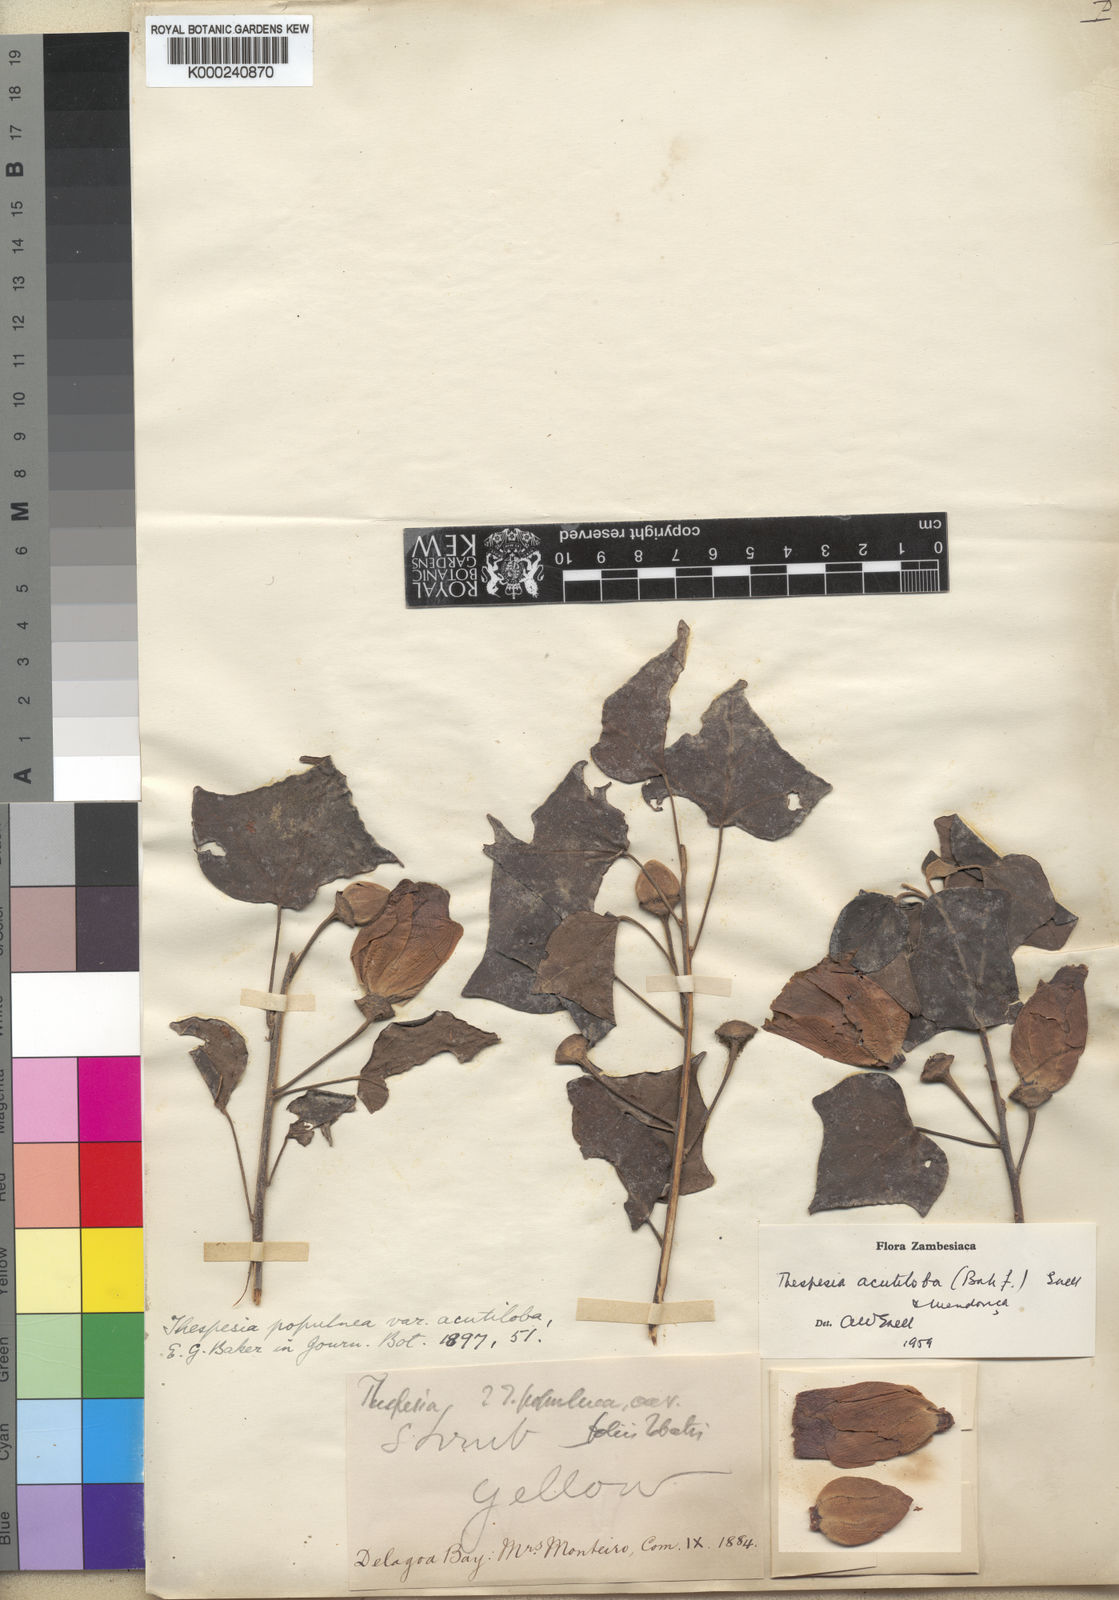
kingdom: Plantae
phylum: Tracheophyta
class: Magnoliopsida
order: Malvales
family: Malvaceae
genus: Thespesia
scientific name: Thespesia
